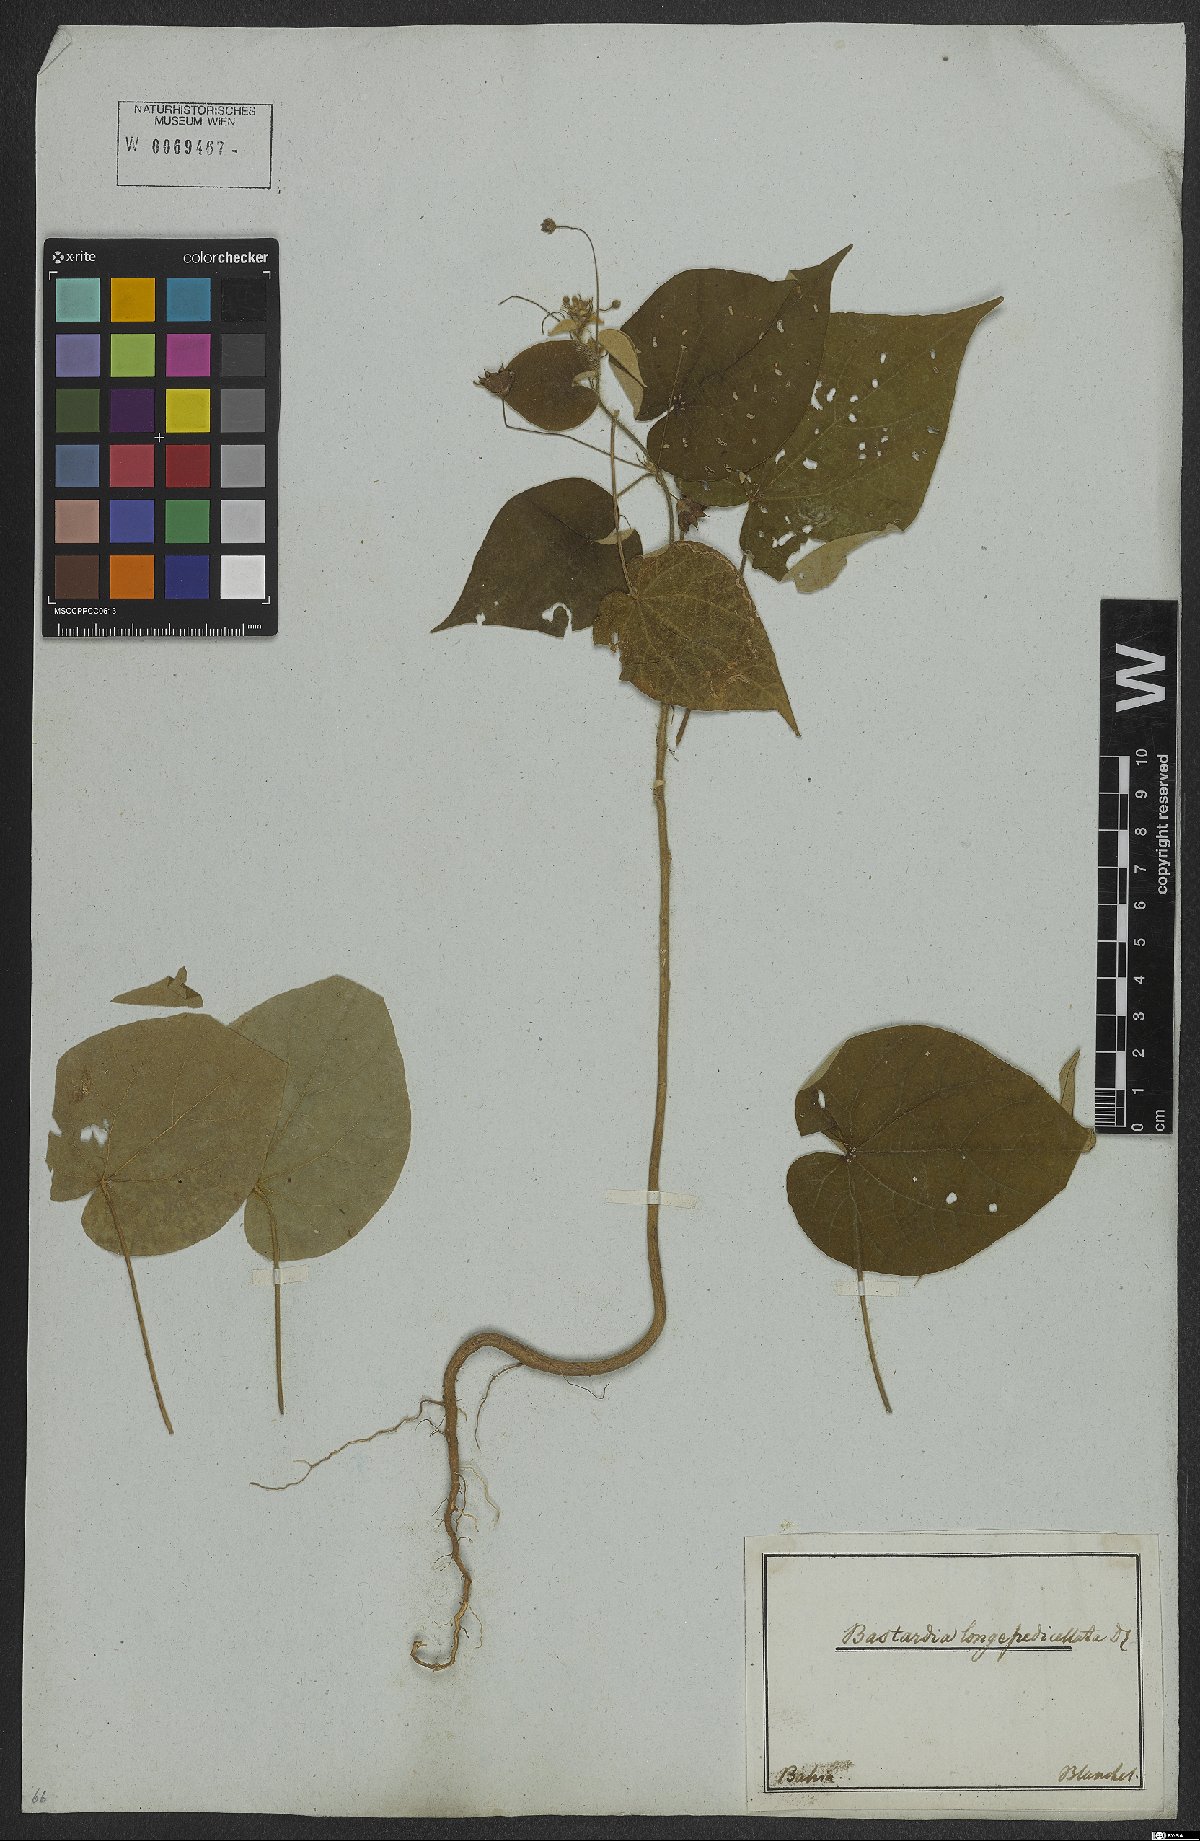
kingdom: Plantae
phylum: Tracheophyta
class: Magnoliopsida
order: Malvales
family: Malvaceae
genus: Wissadula
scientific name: Wissadula periplocifolia
